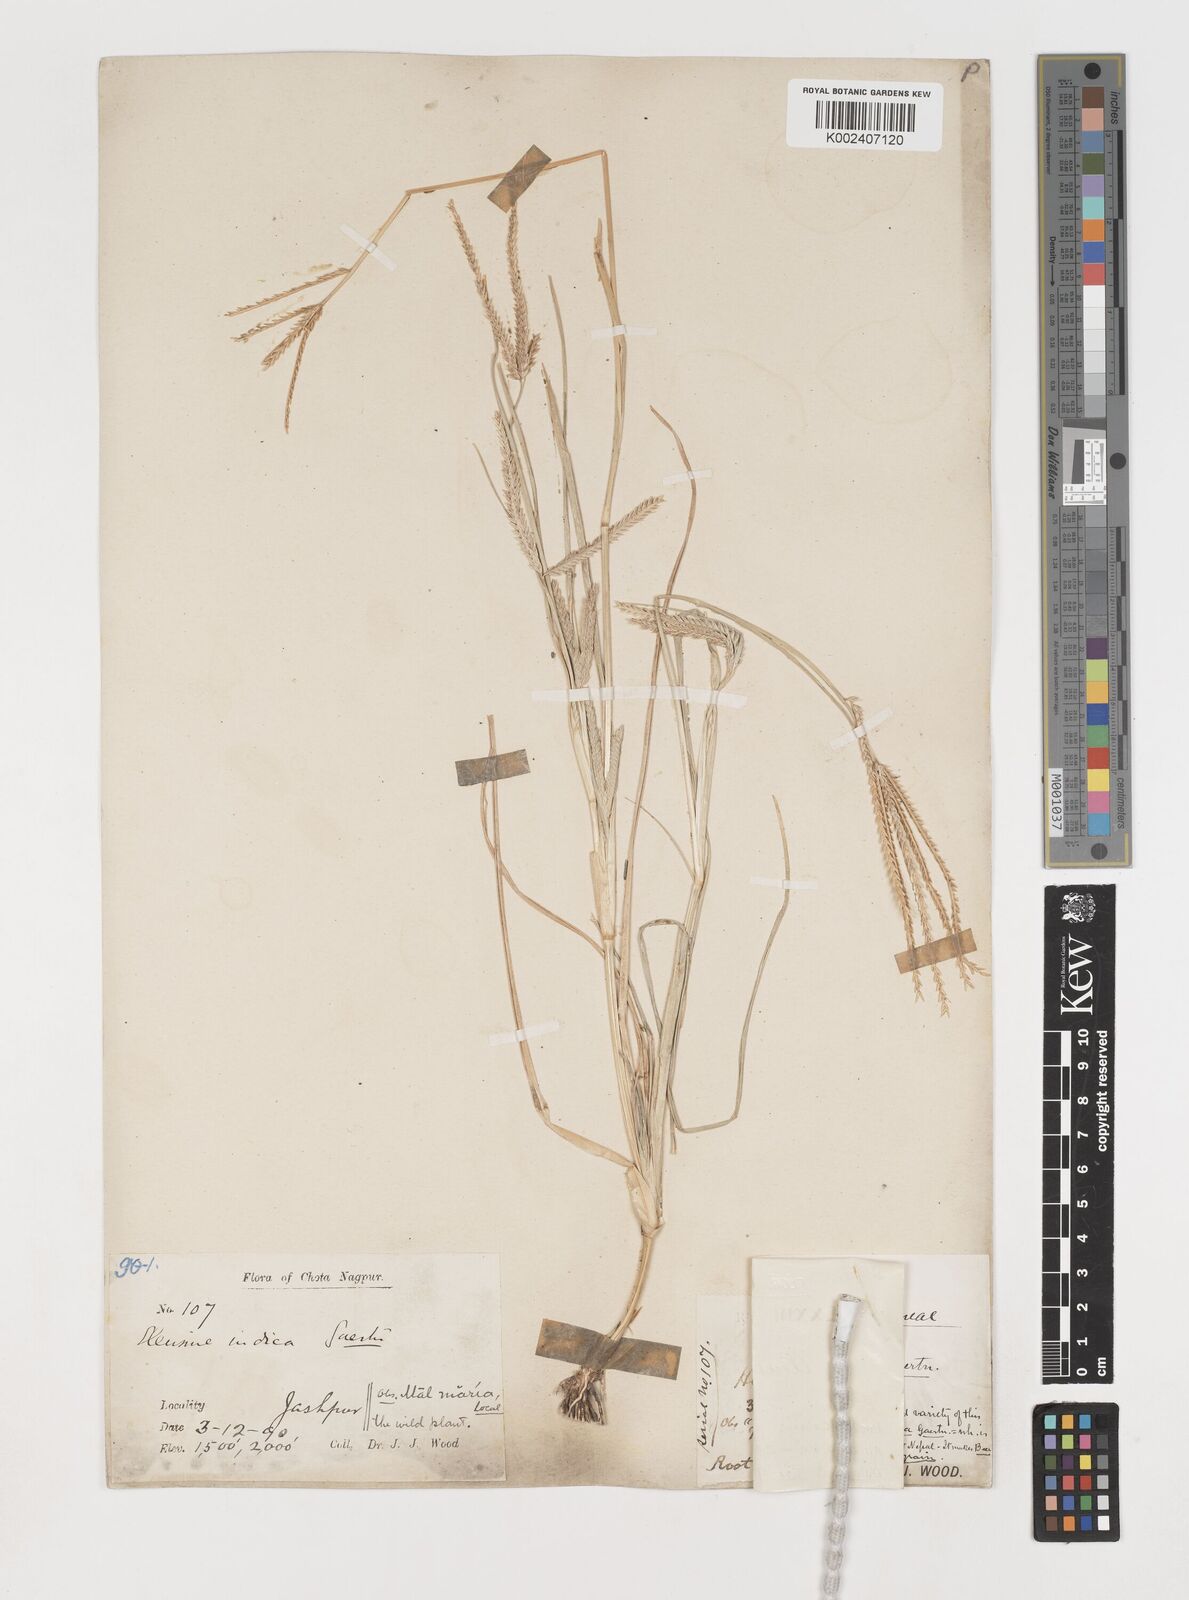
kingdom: Plantae
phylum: Tracheophyta
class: Liliopsida
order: Poales
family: Poaceae
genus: Eleusine
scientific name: Eleusine indica
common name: Yard-grass
